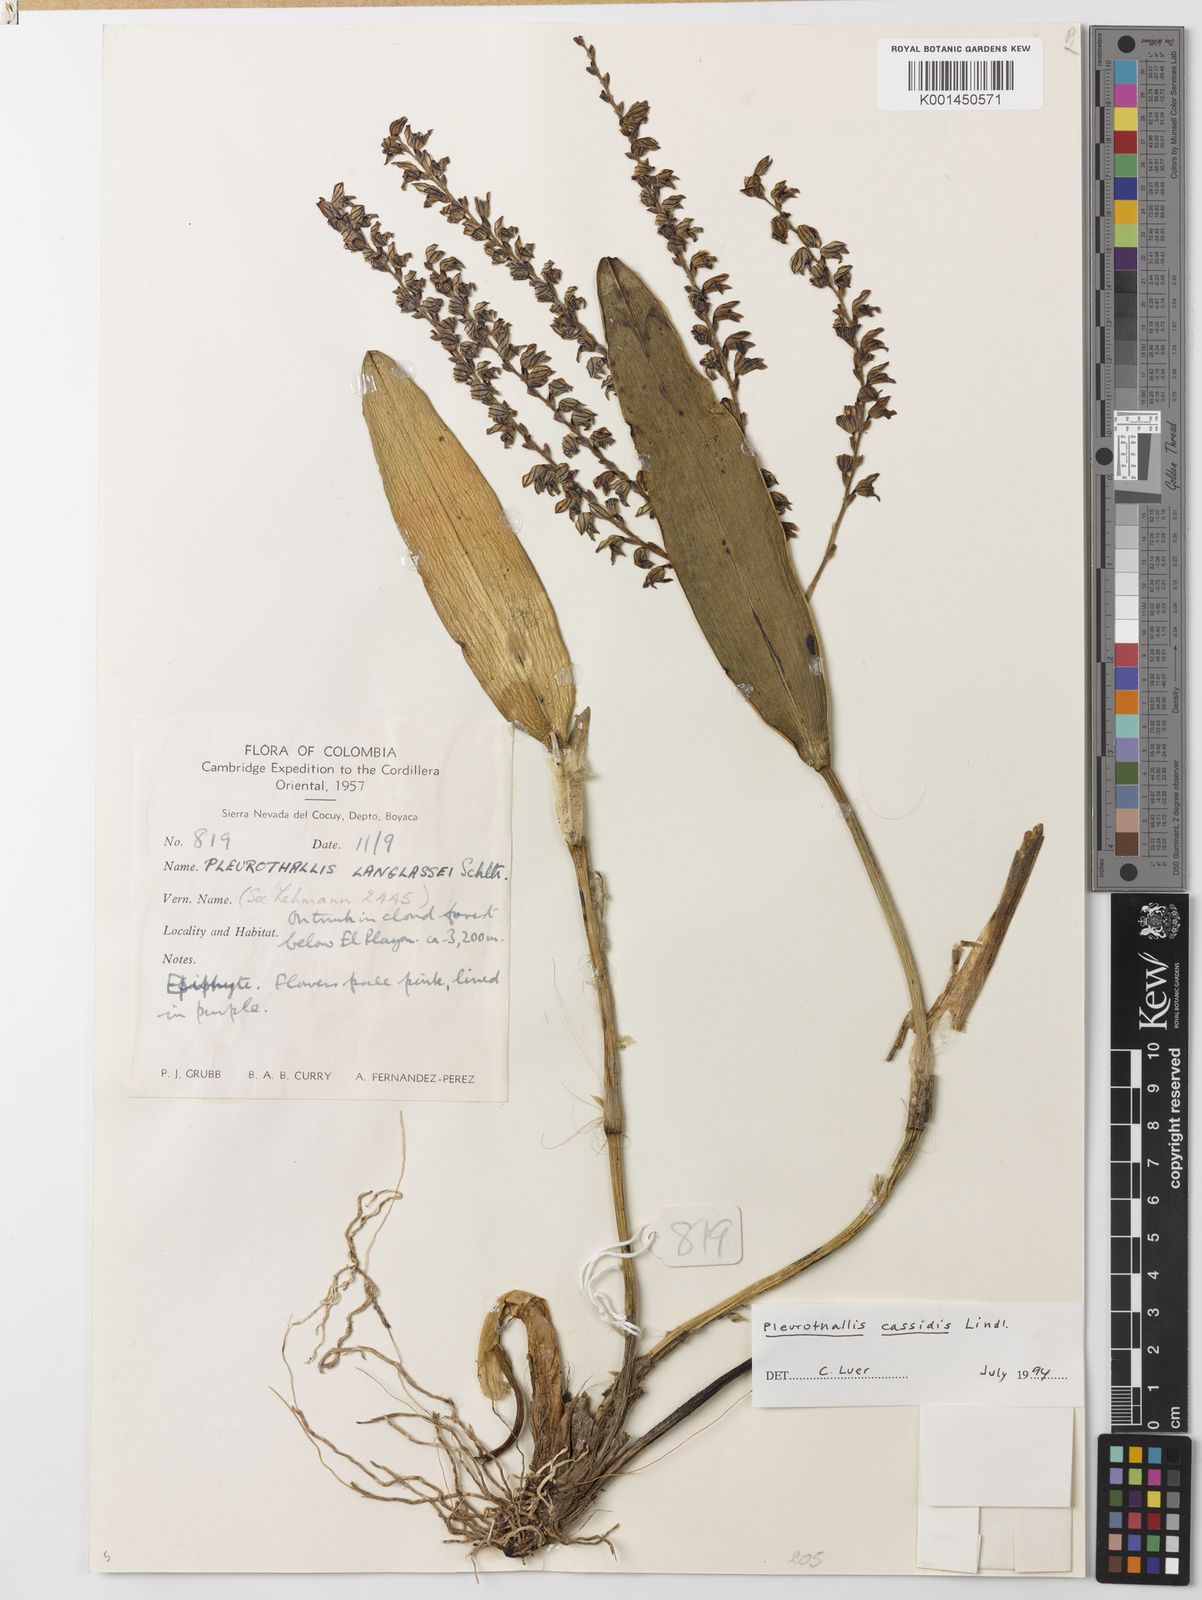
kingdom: Plantae
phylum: Tracheophyta
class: Liliopsida
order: Asparagales
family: Orchidaceae
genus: Stelis
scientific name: Stelis cassidis
